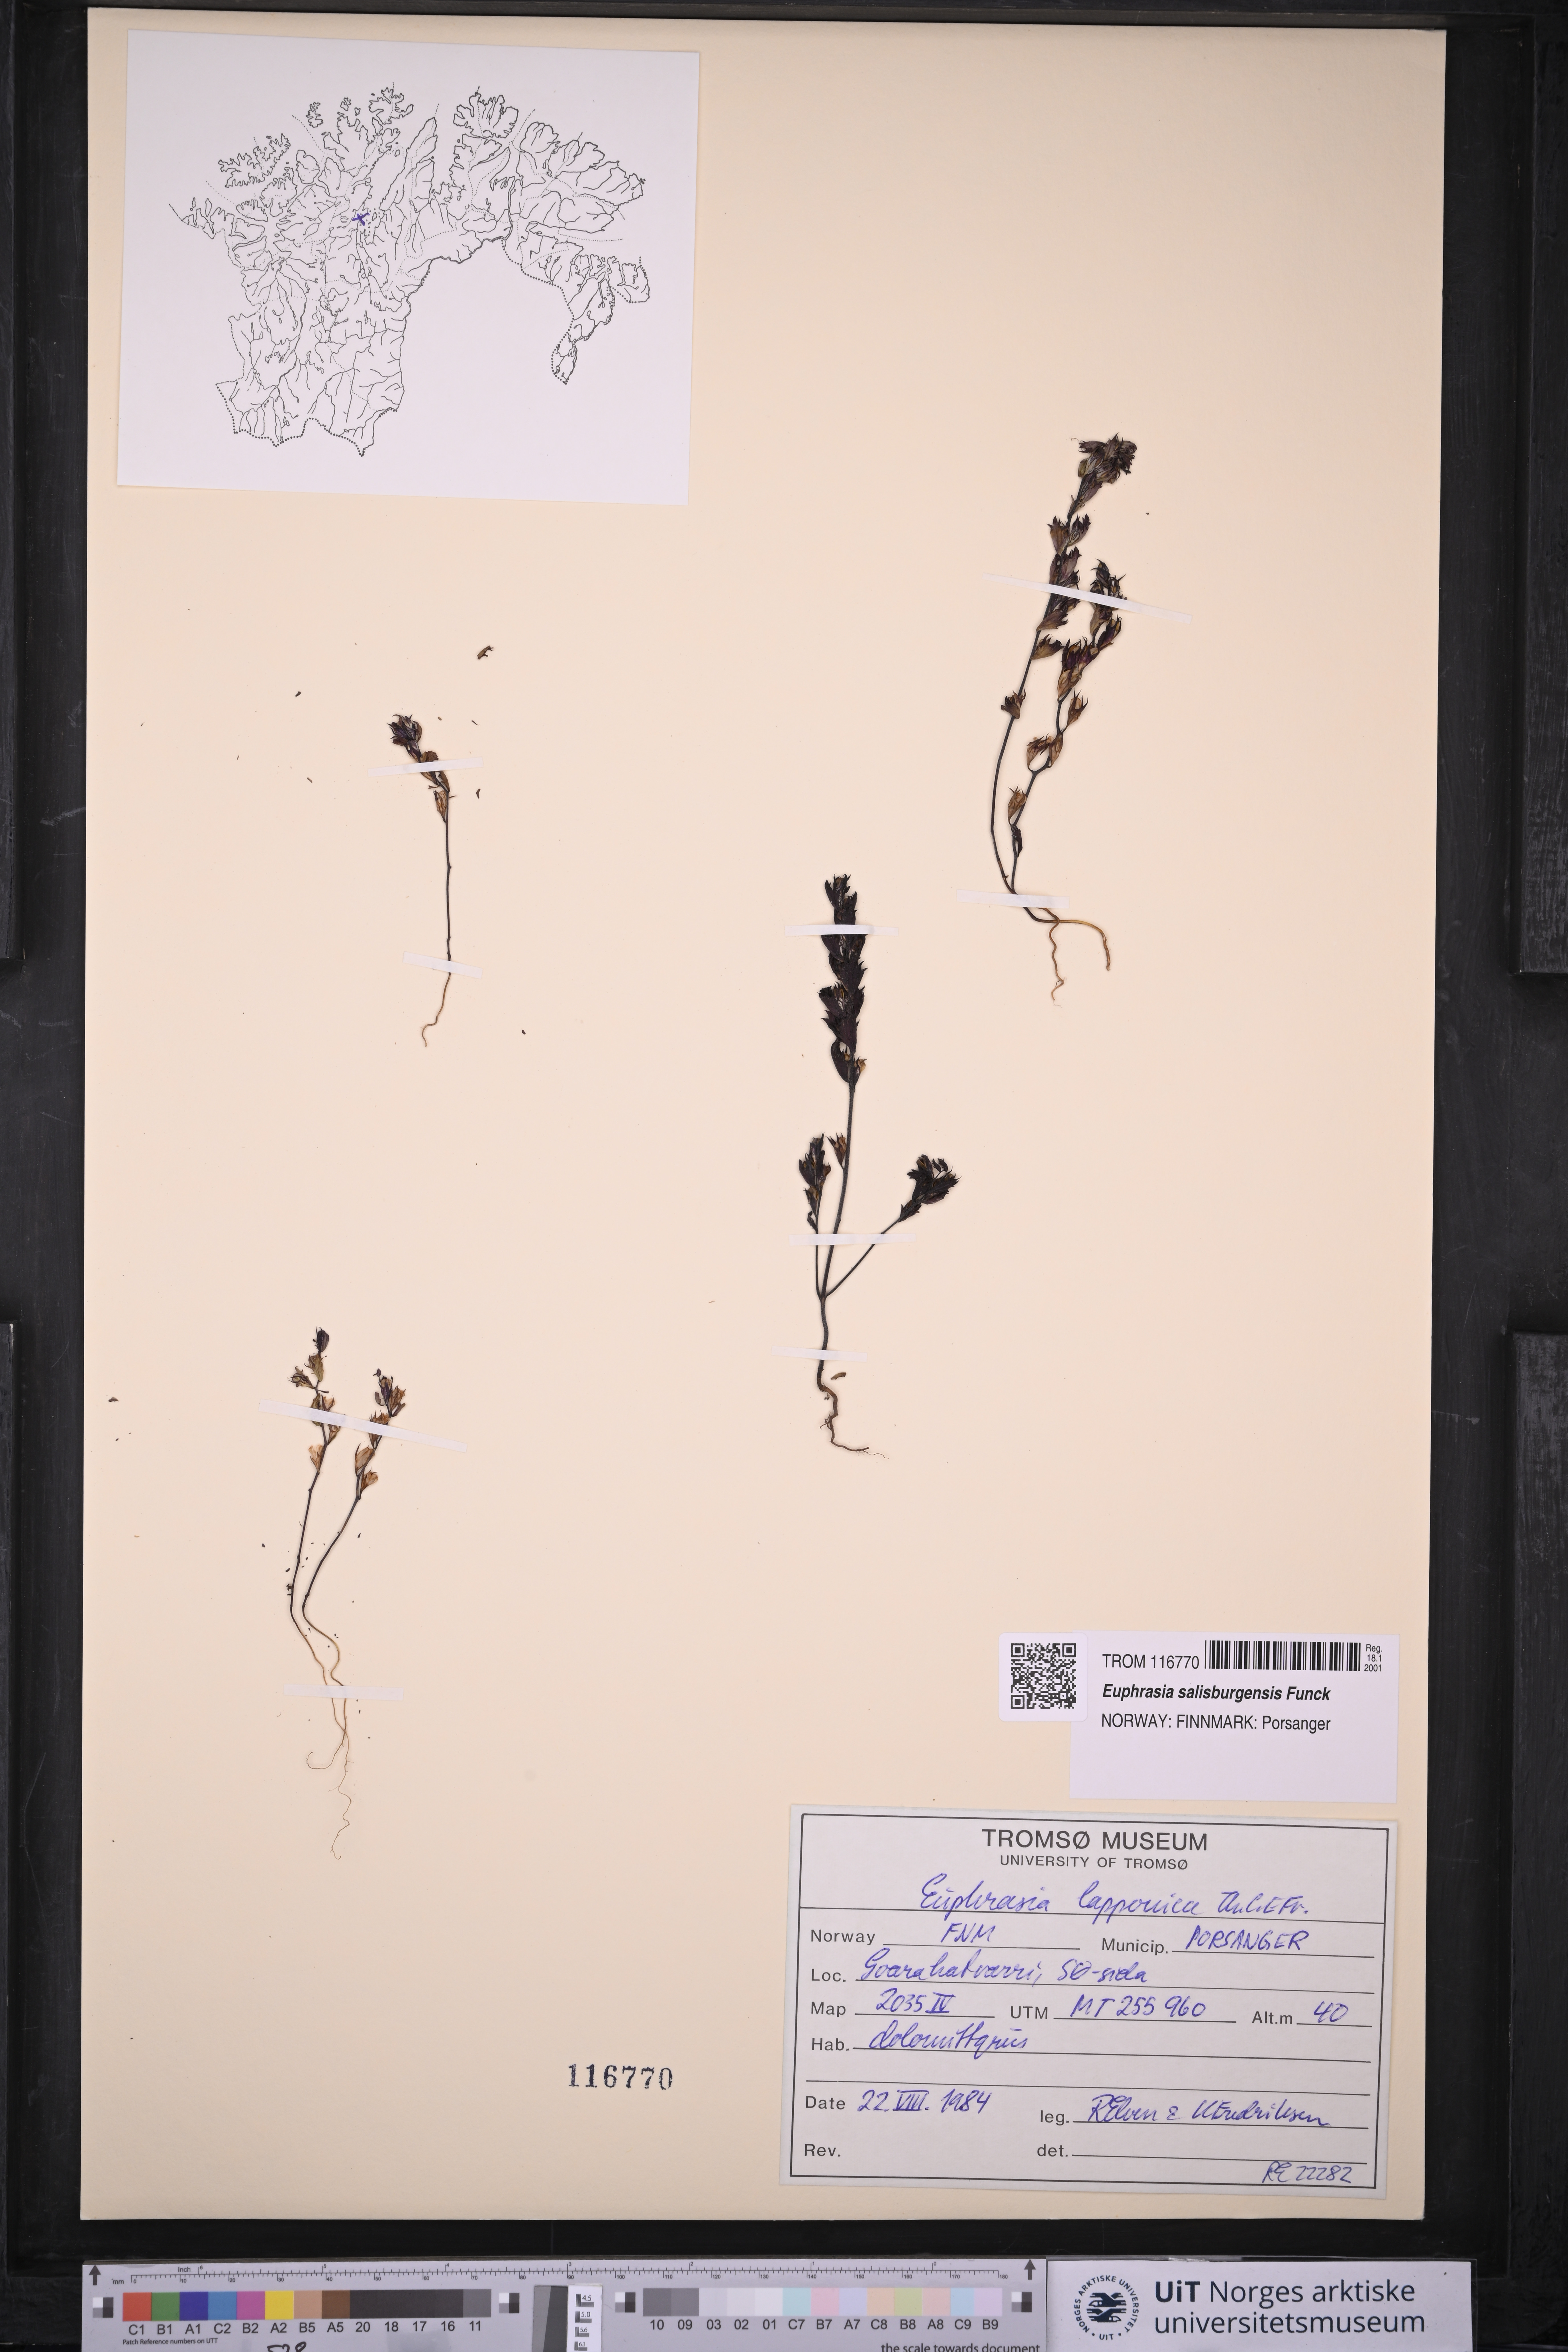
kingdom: Plantae
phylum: Tracheophyta
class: Magnoliopsida
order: Lamiales
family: Orobanchaceae
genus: Euphrasia
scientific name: Euphrasia salisburgensis
